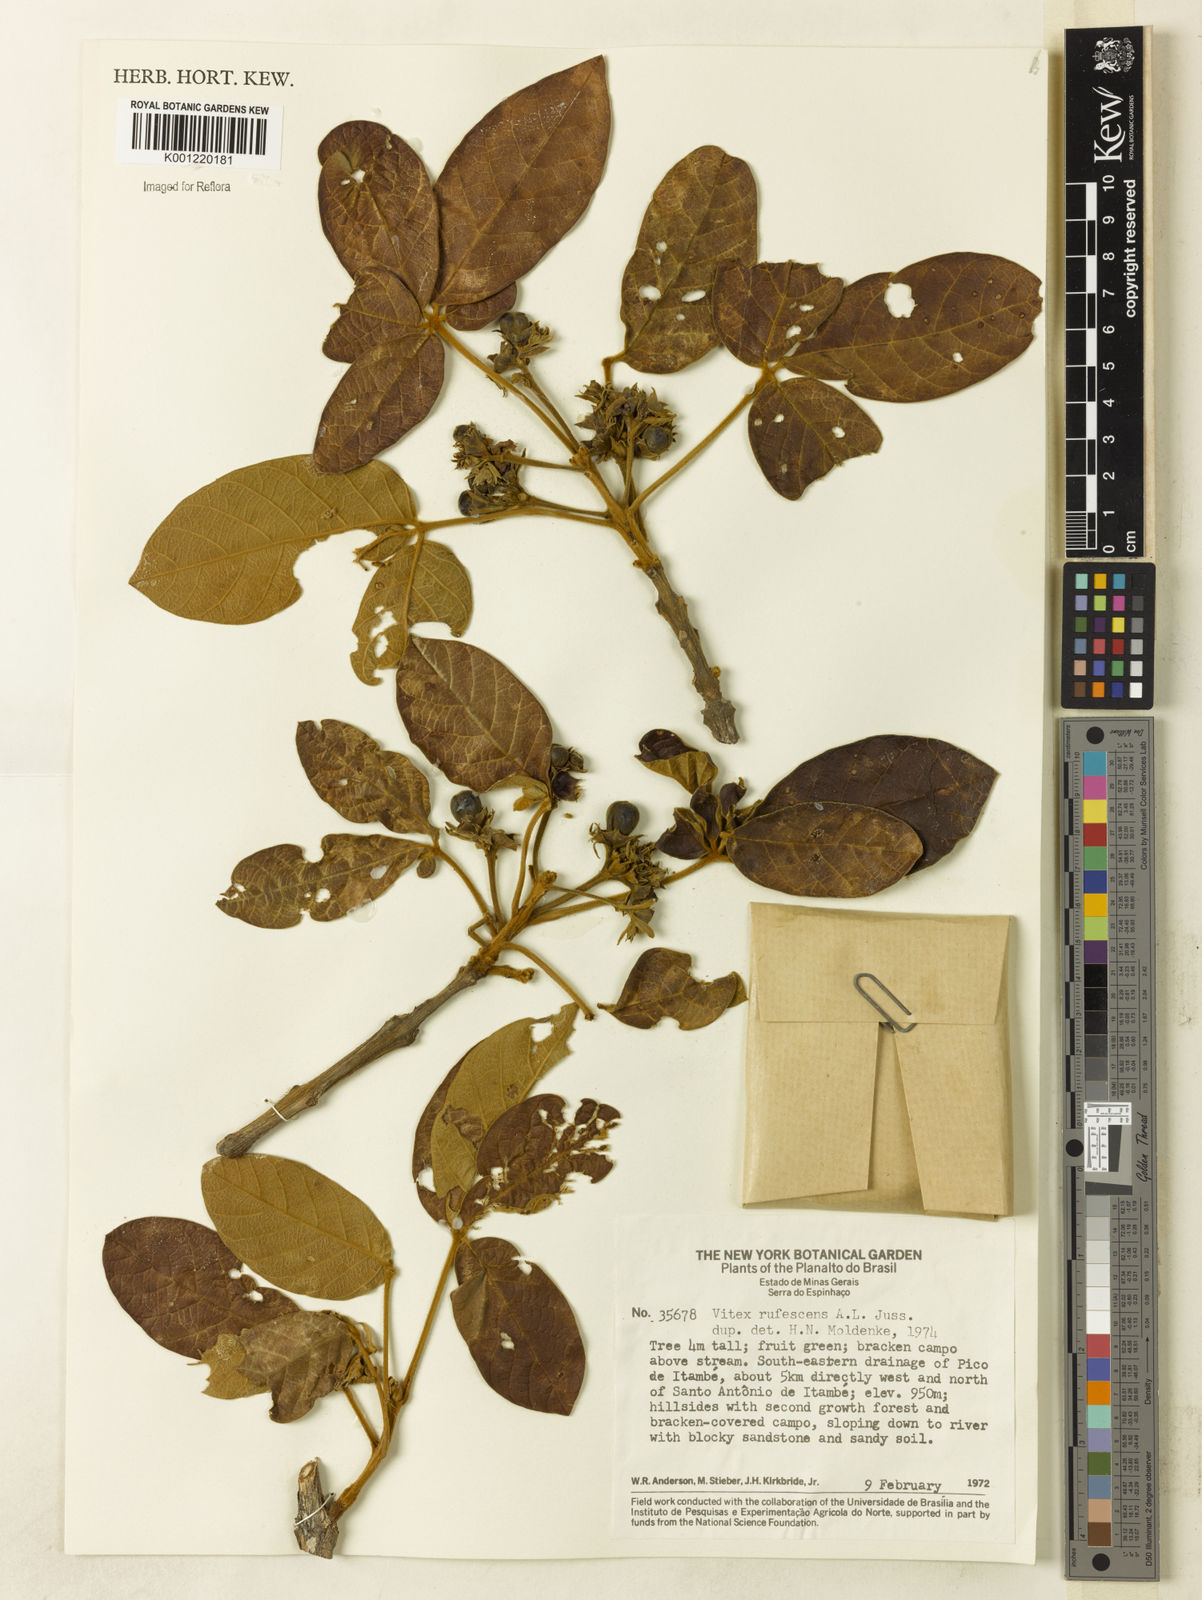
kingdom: Plantae
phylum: Tracheophyta
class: Magnoliopsida
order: Lamiales
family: Lamiaceae
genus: Vitex
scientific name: Vitex rufescens
